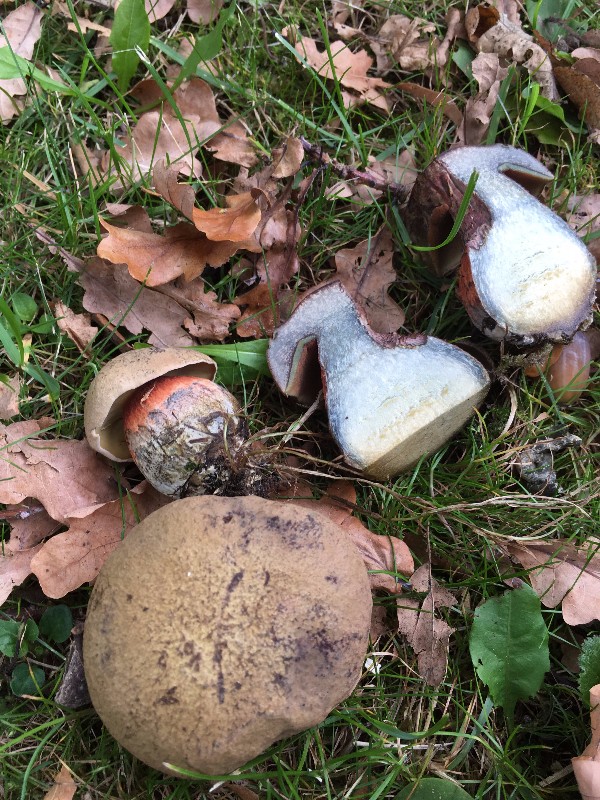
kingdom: Fungi
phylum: Basidiomycota
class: Agaricomycetes
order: Boletales
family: Boletaceae
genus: Suillellus
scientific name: Suillellus luridus
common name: netstokket indigorørhat
